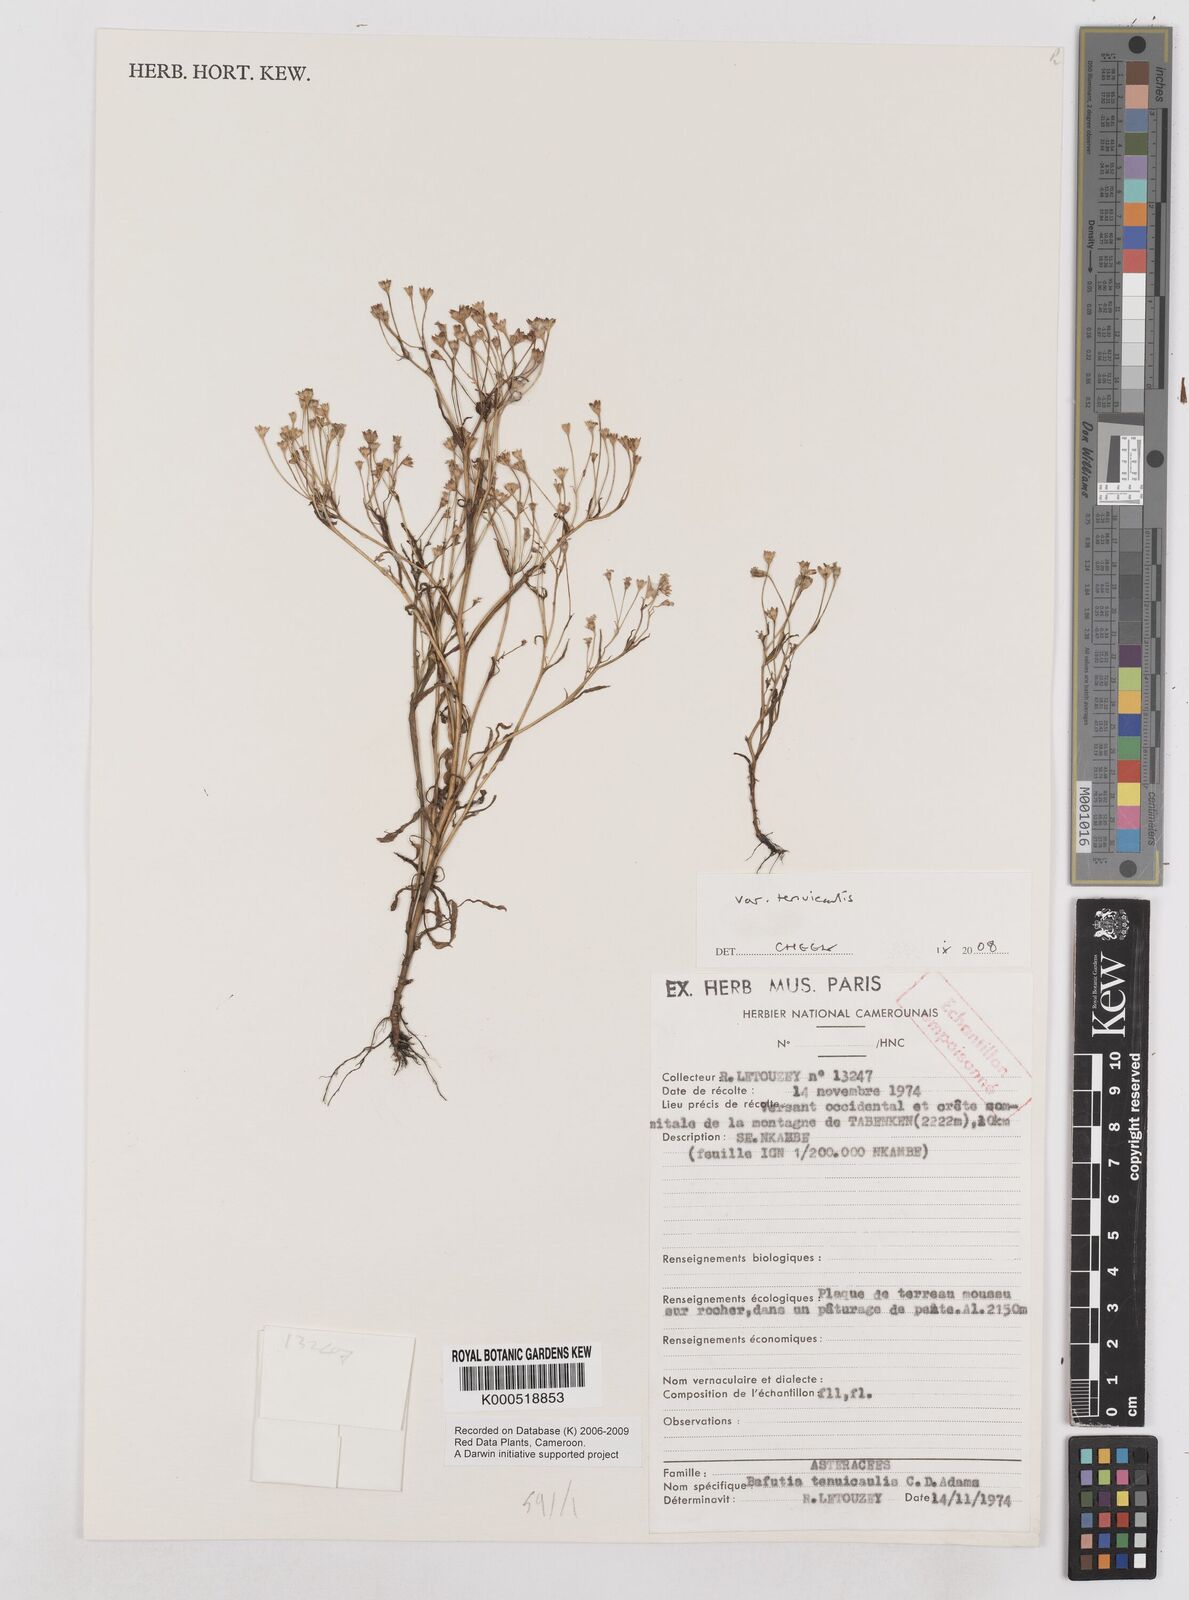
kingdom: Plantae
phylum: Tracheophyta
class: Magnoliopsida
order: Asterales
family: Asteraceae
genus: Emilia
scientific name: Emilia tenuicaulis
